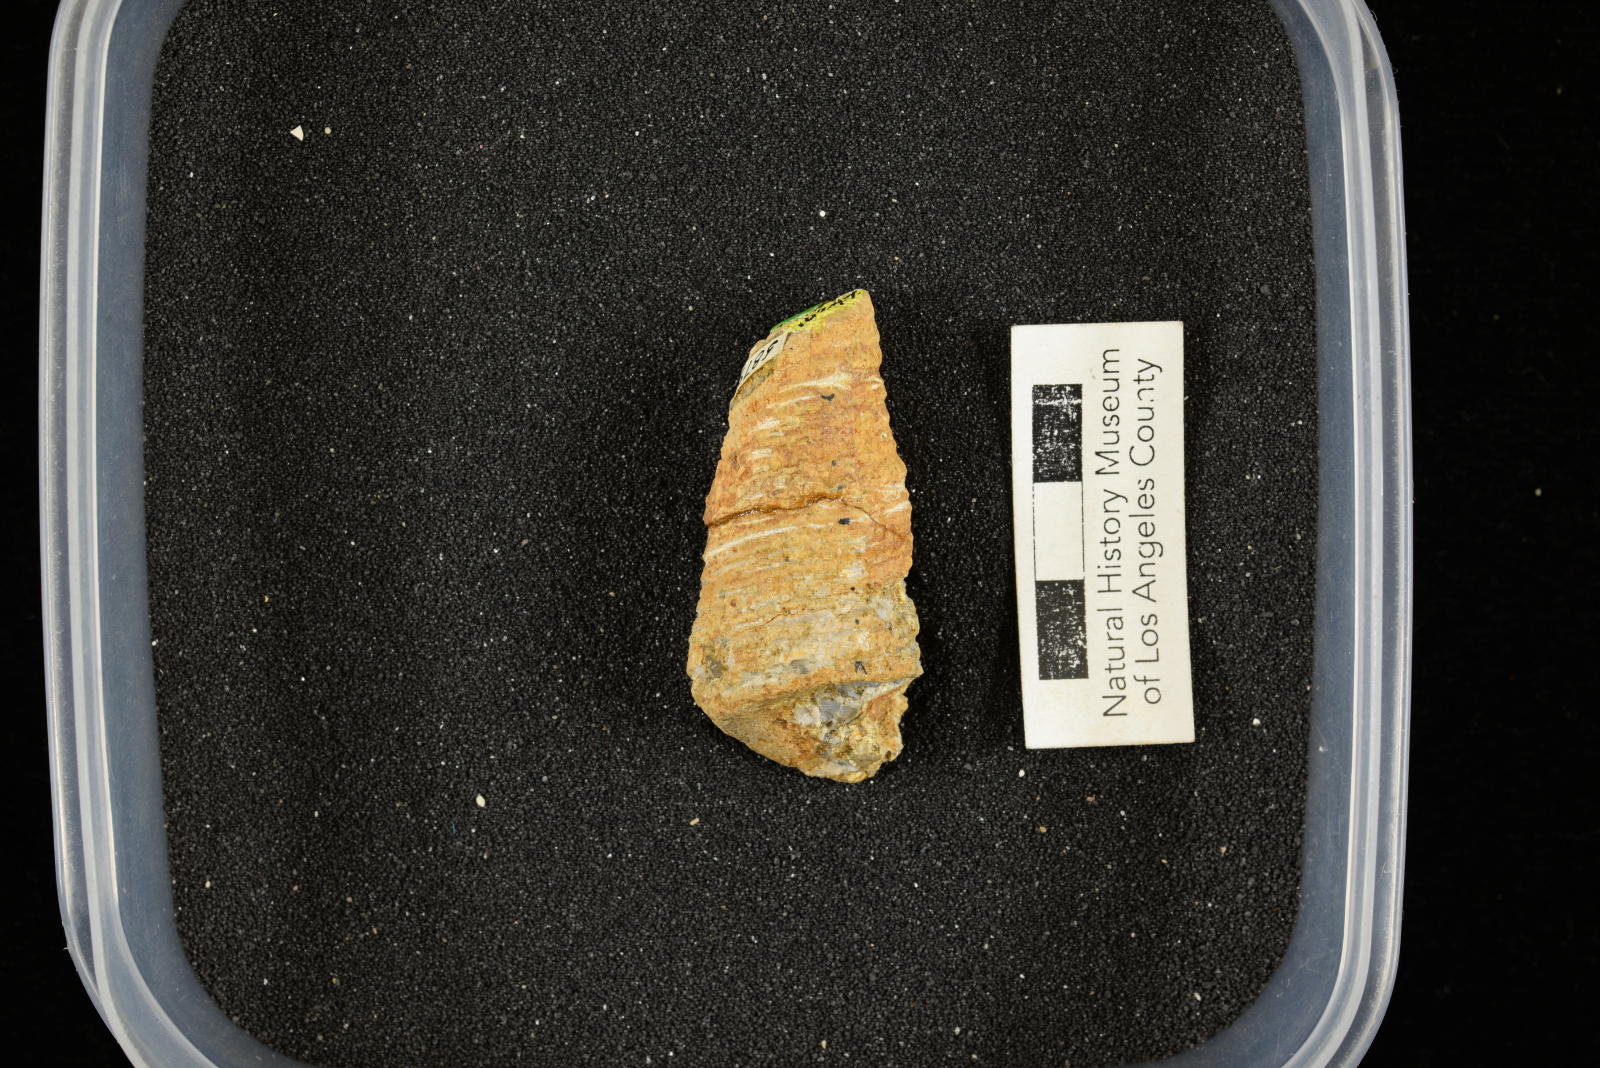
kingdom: Animalia
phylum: Mollusca
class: Gastropoda
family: Turritellidae
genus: Turritella
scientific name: Turritella
